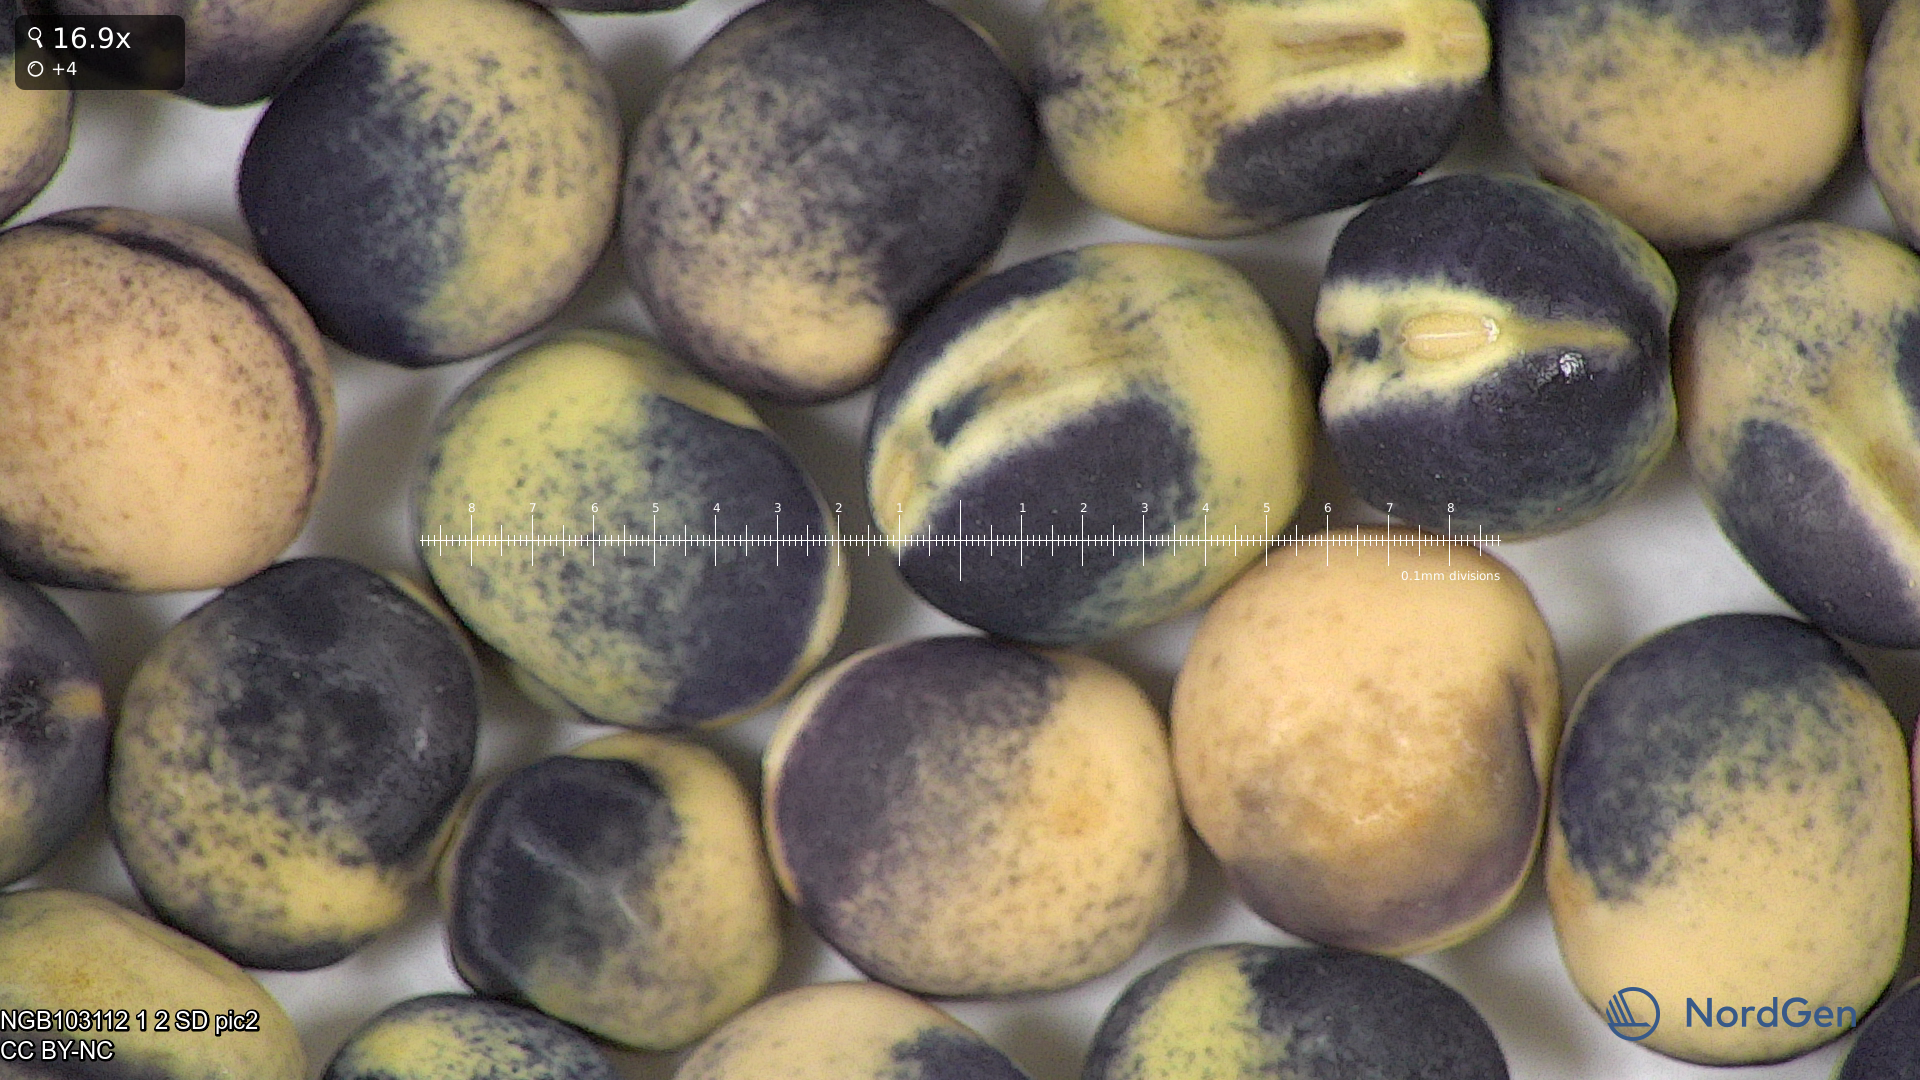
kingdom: Plantae
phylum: Tracheophyta
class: Magnoliopsida
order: Fabales
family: Fabaceae
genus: Lathyrus
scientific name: Lathyrus oleraceus
